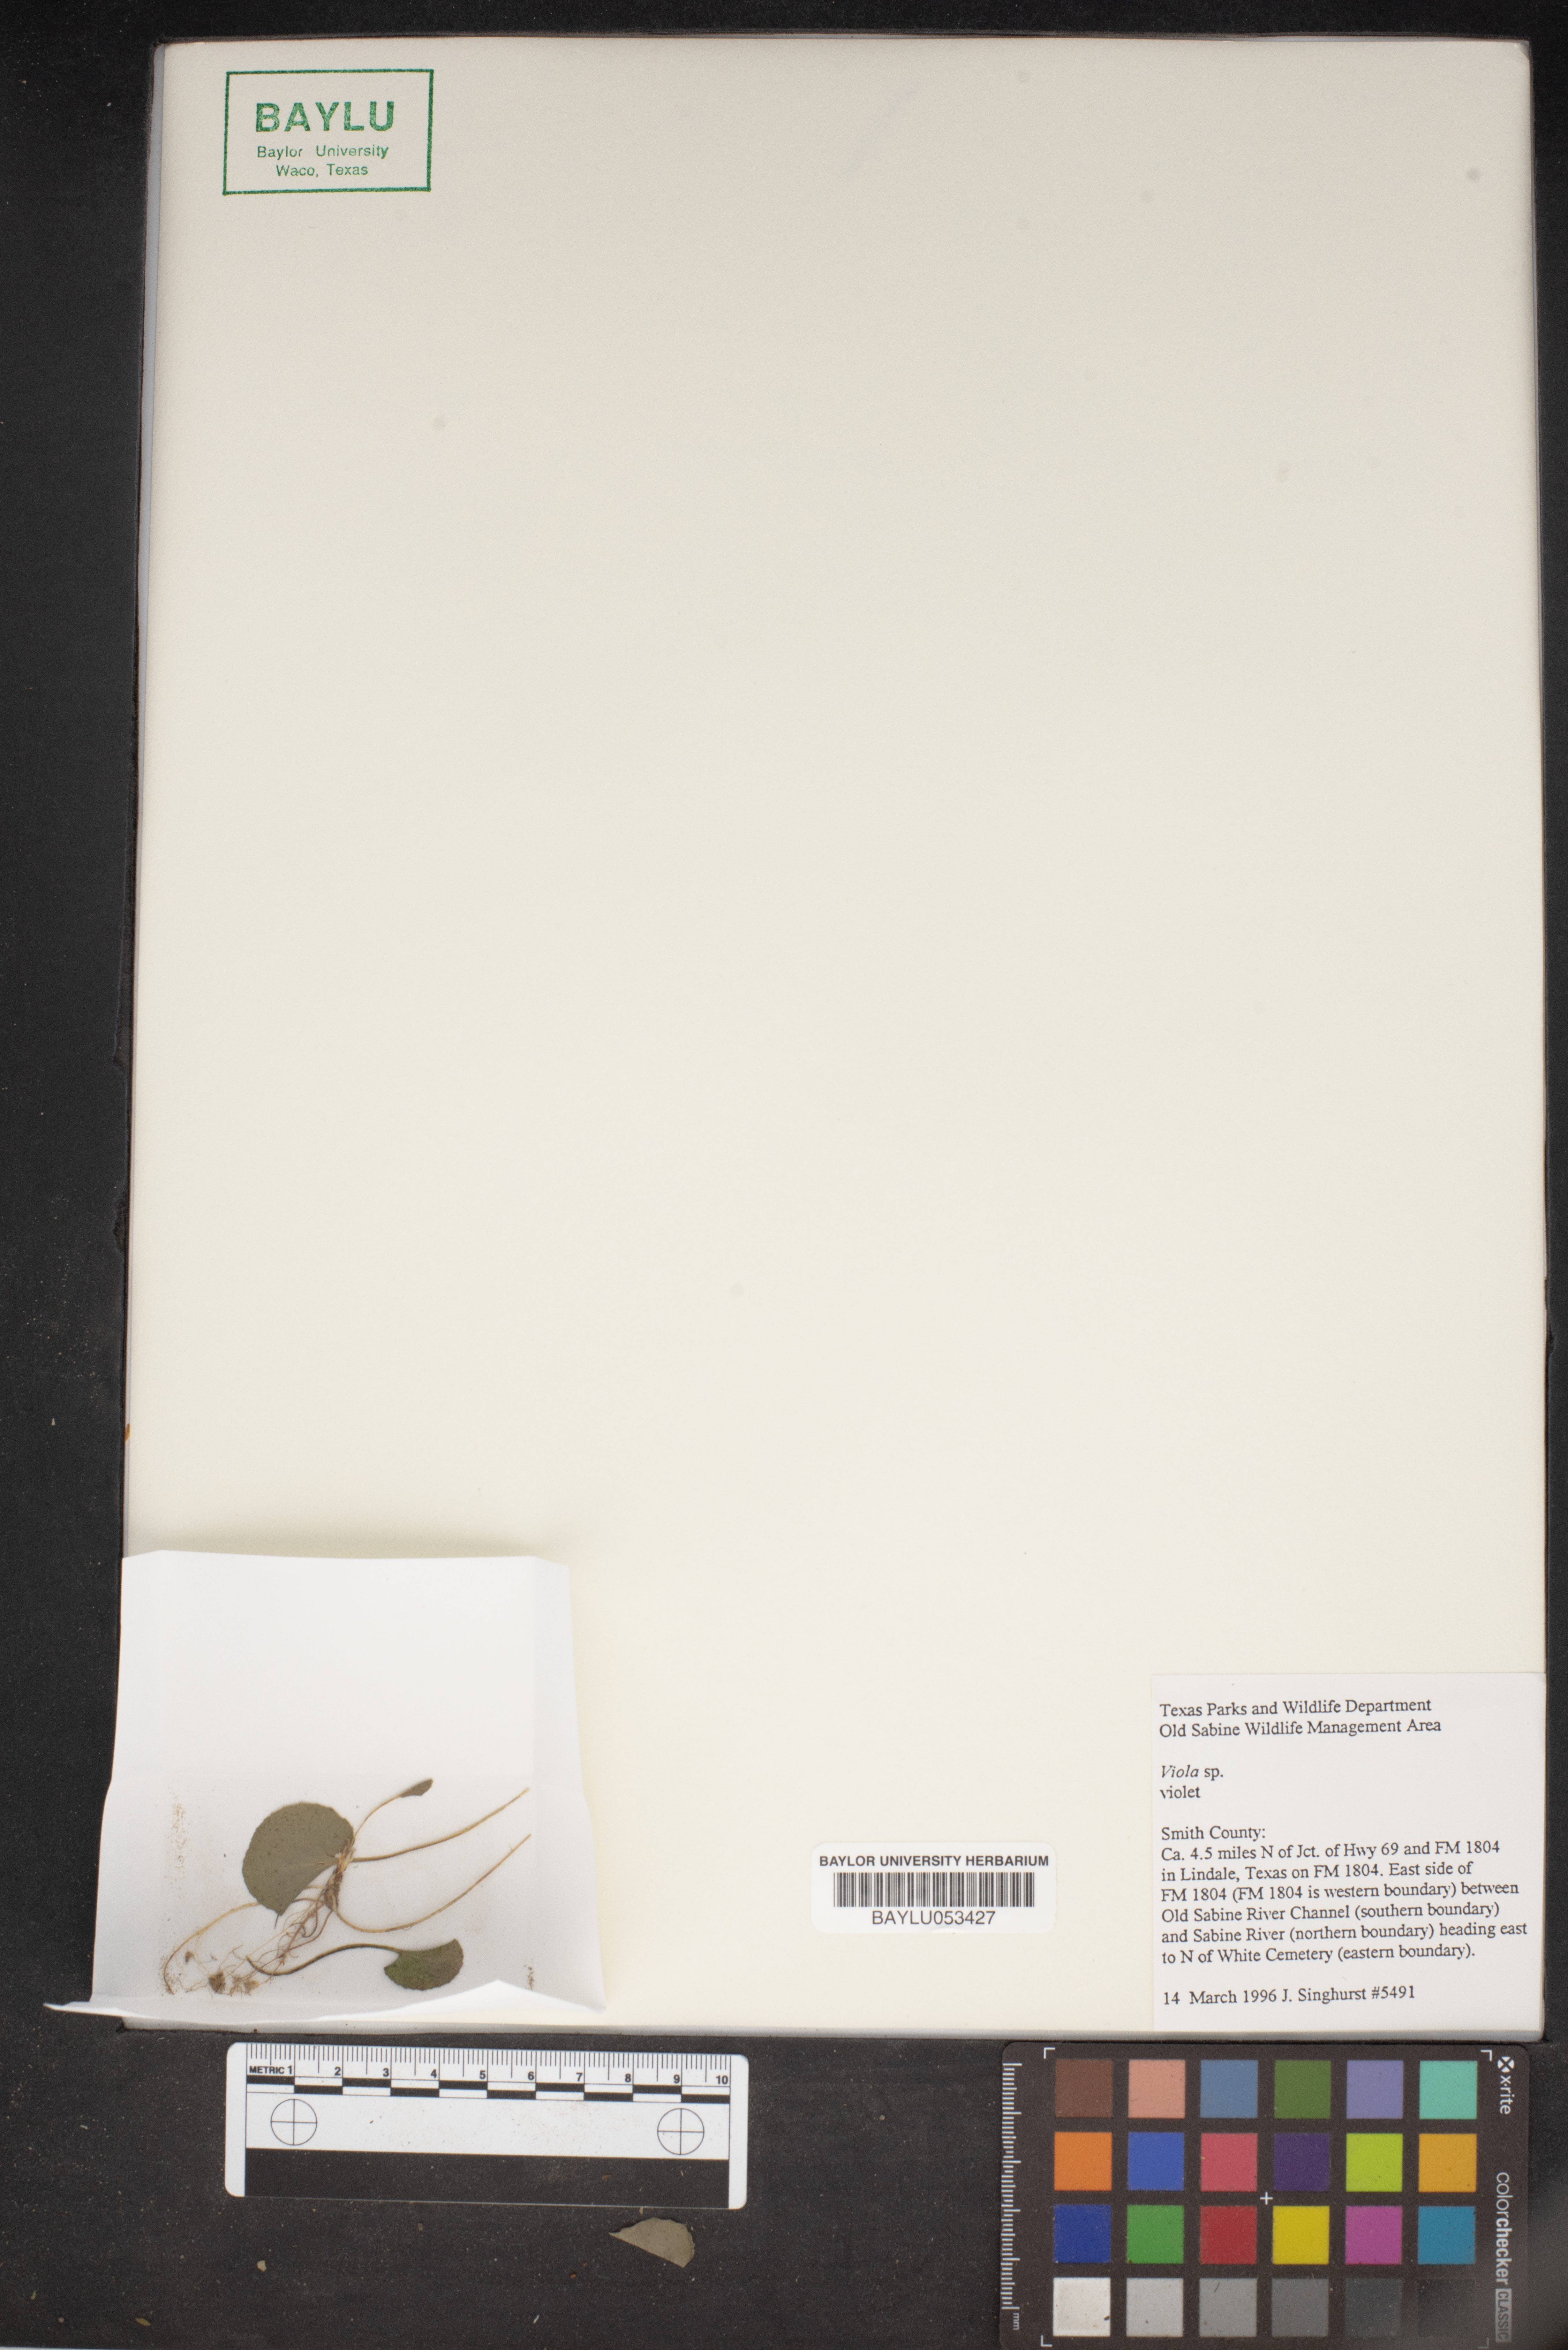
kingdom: Plantae
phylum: Tracheophyta
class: Magnoliopsida
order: Malpighiales
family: Violaceae
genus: Viola
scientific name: Viola
